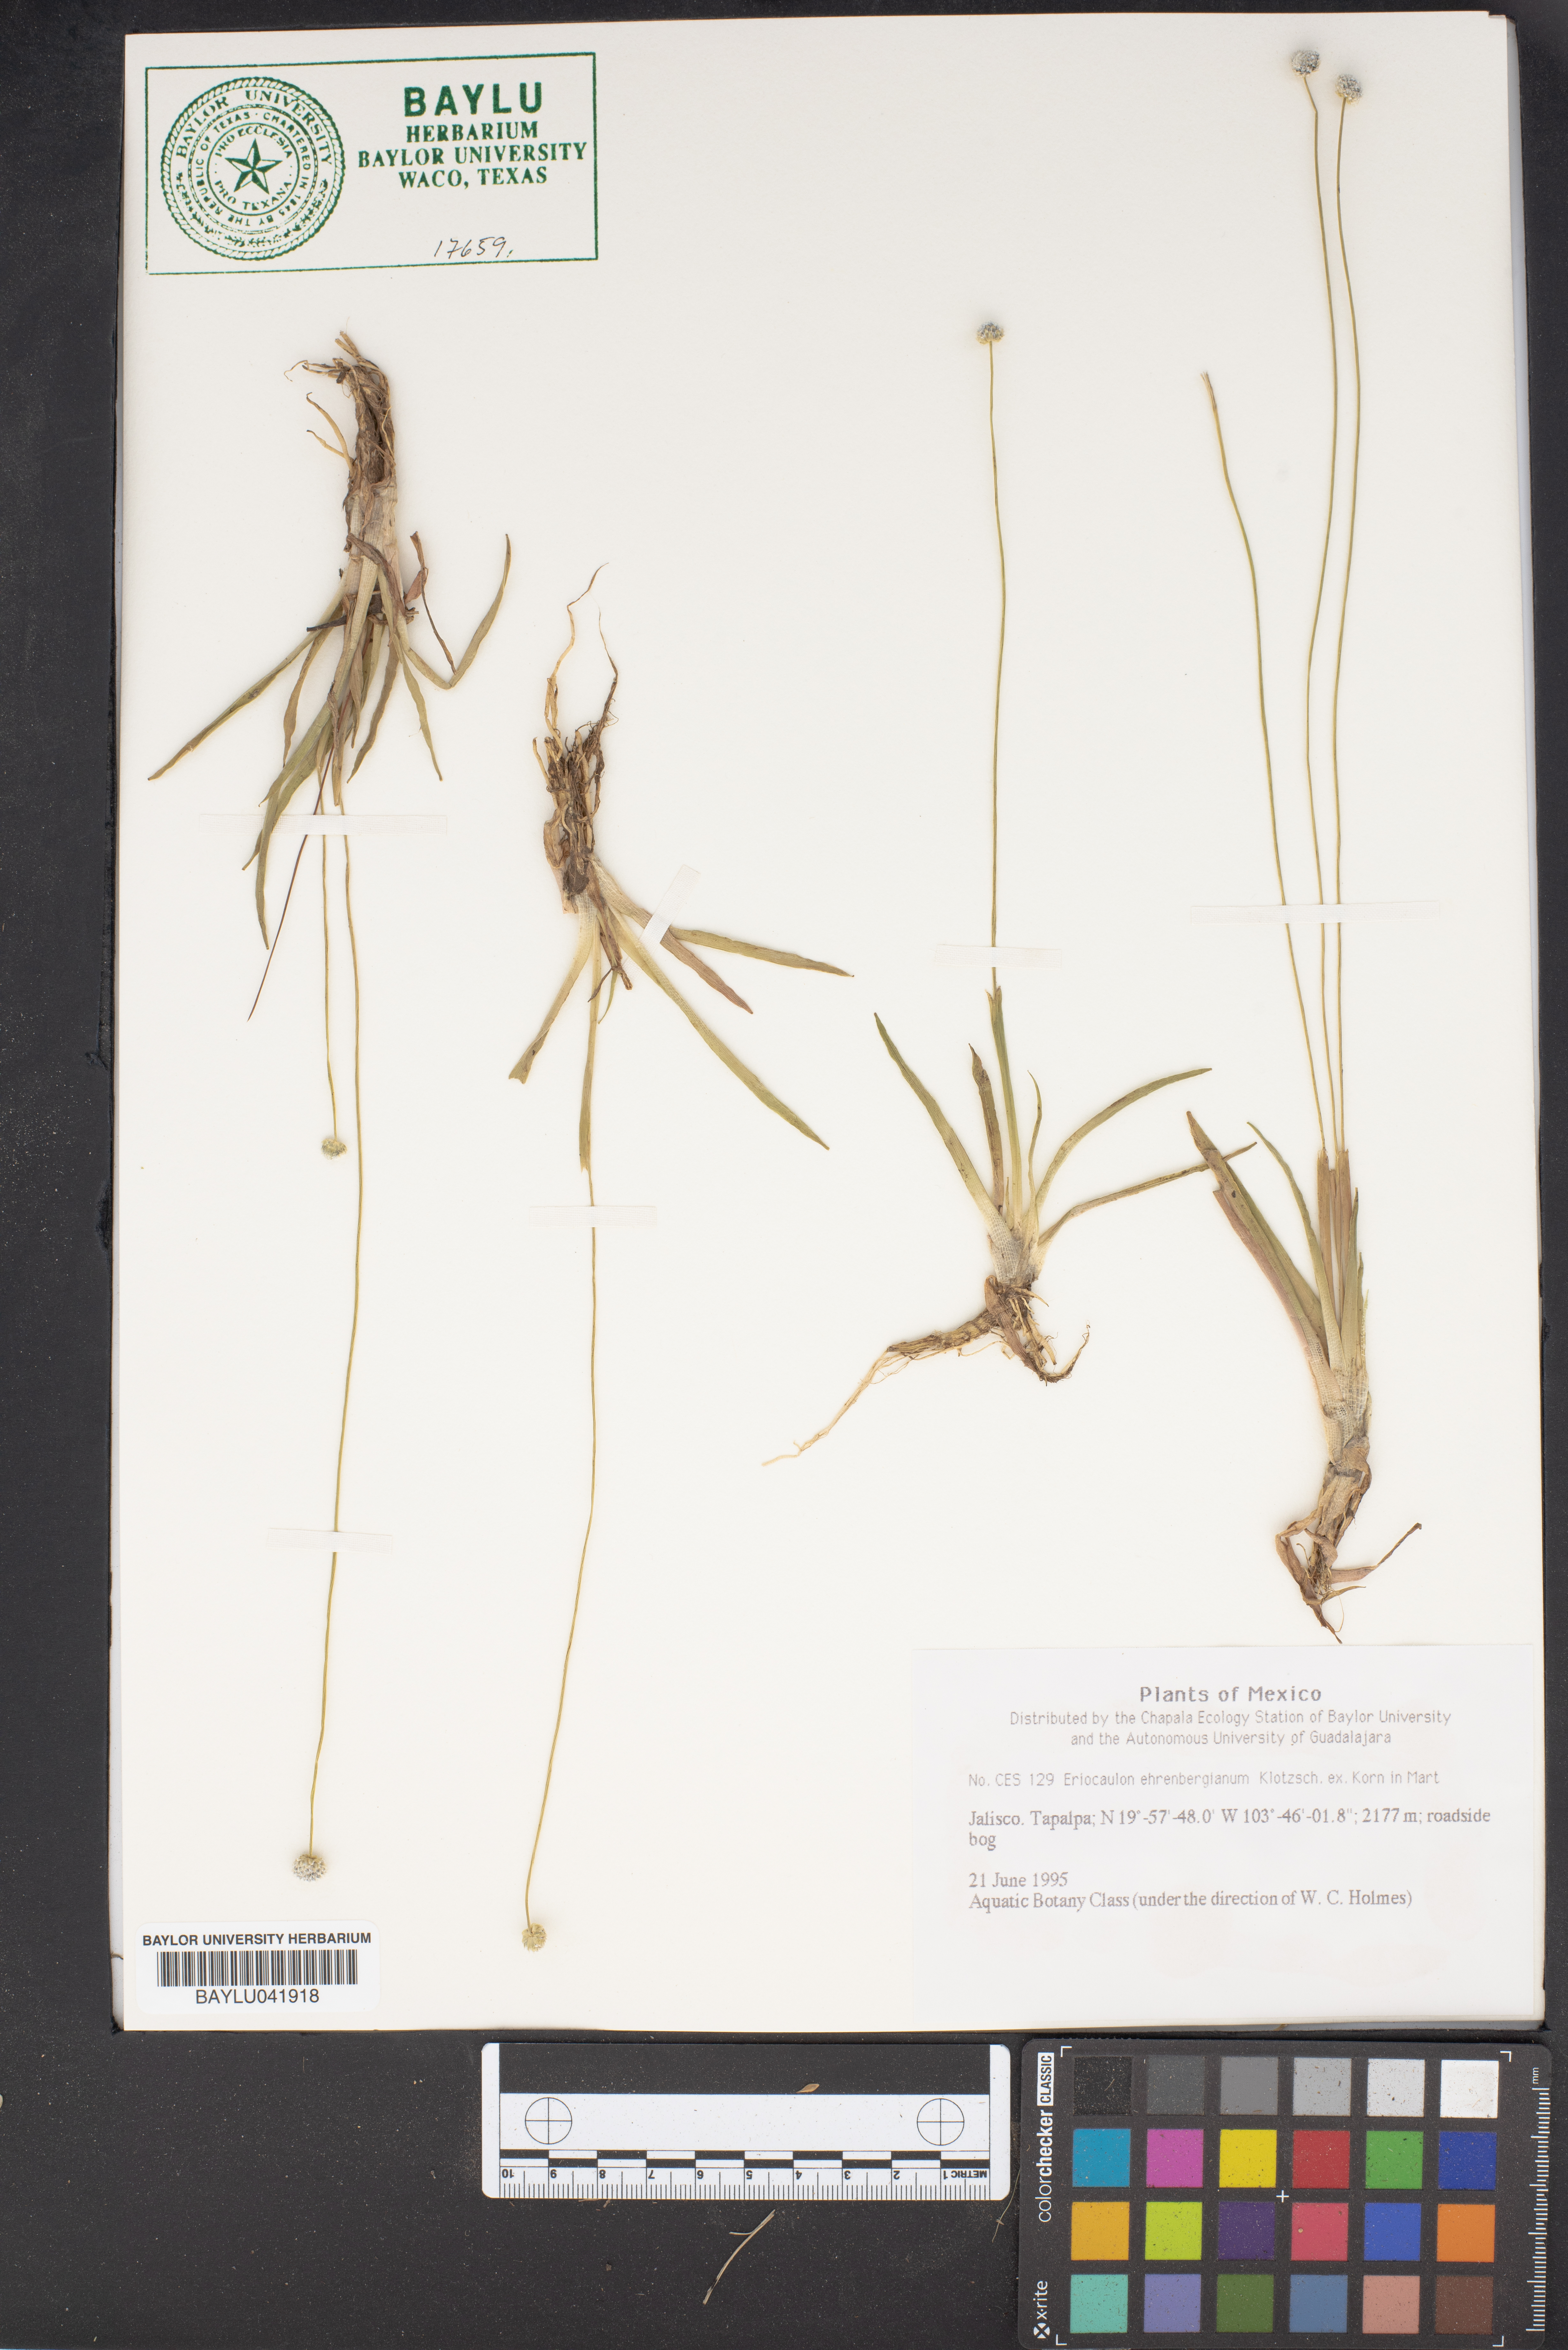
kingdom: Plantae
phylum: Tracheophyta
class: Liliopsida
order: Poales
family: Eriocaulaceae
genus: Eriocaulon
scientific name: Eriocaulon ehrenbergianum
